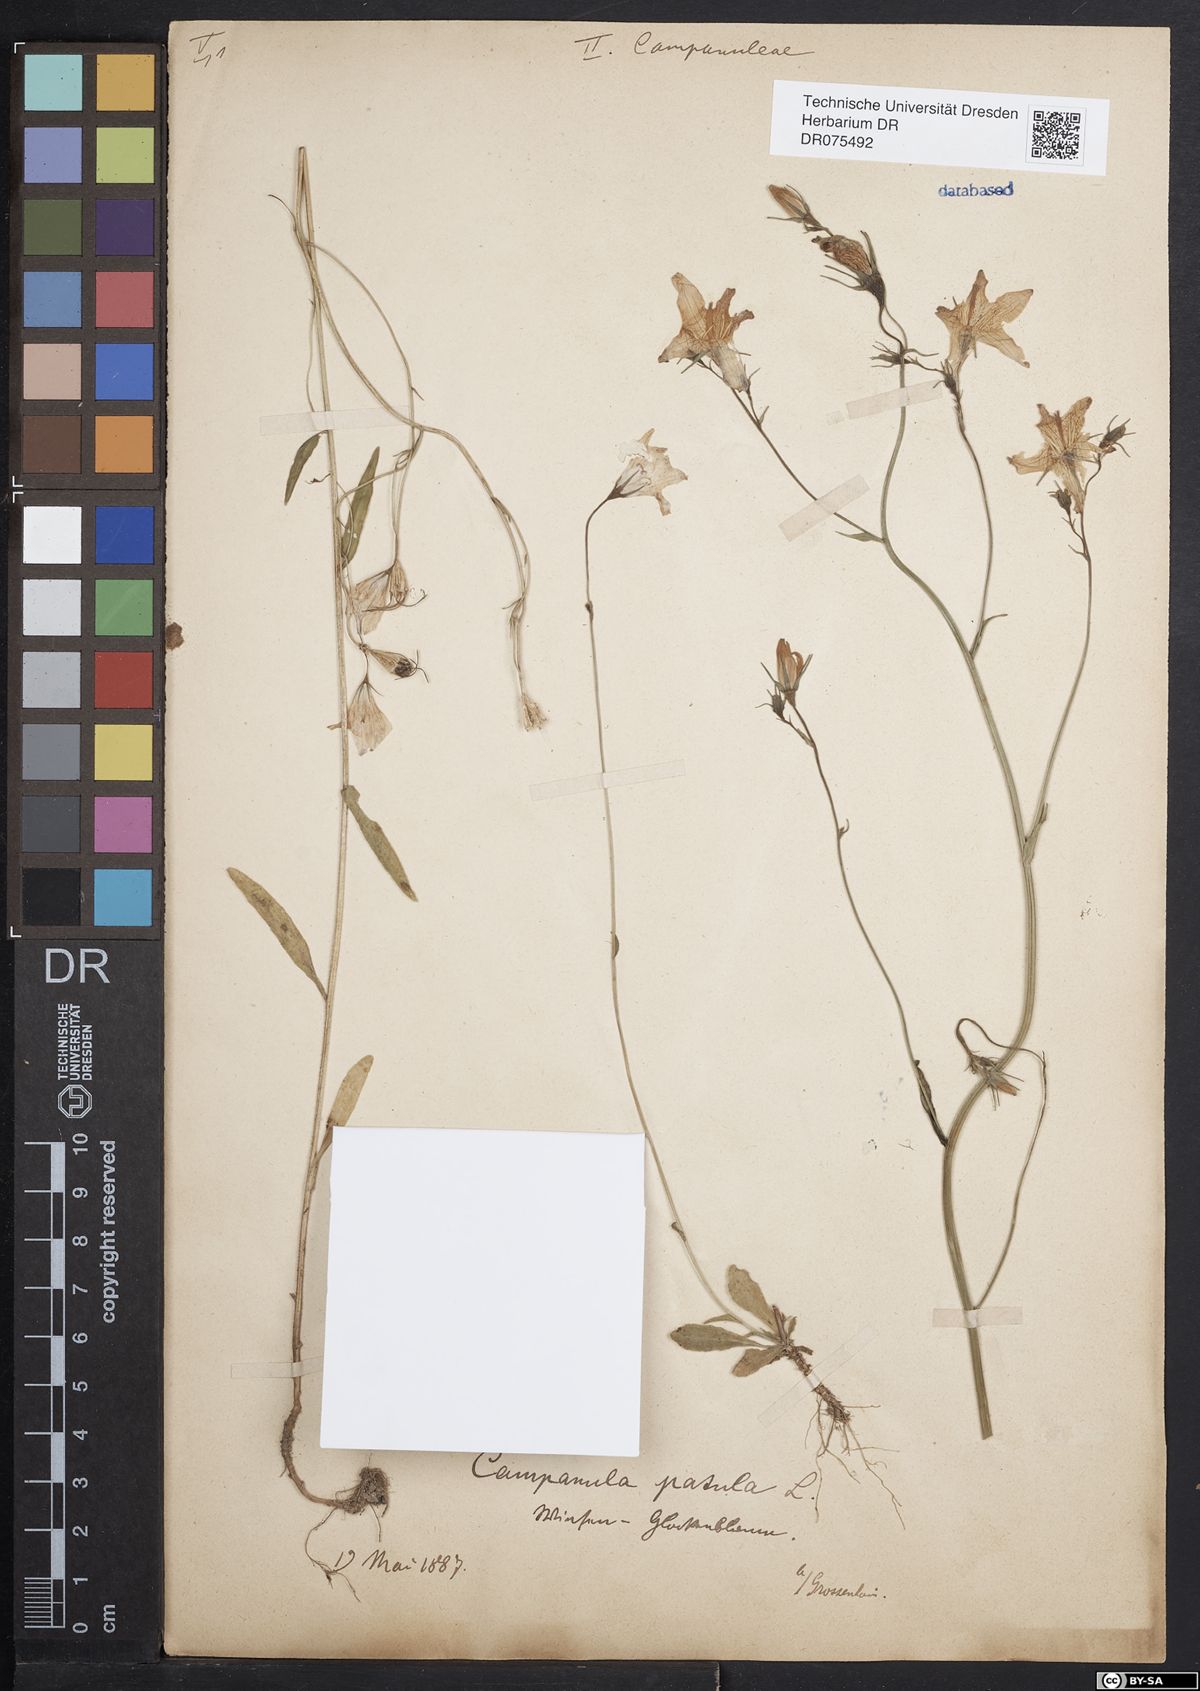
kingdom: Plantae
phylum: Tracheophyta
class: Magnoliopsida
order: Asterales
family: Campanulaceae
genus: Campanula
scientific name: Campanula patula
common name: Spreading bellflower
